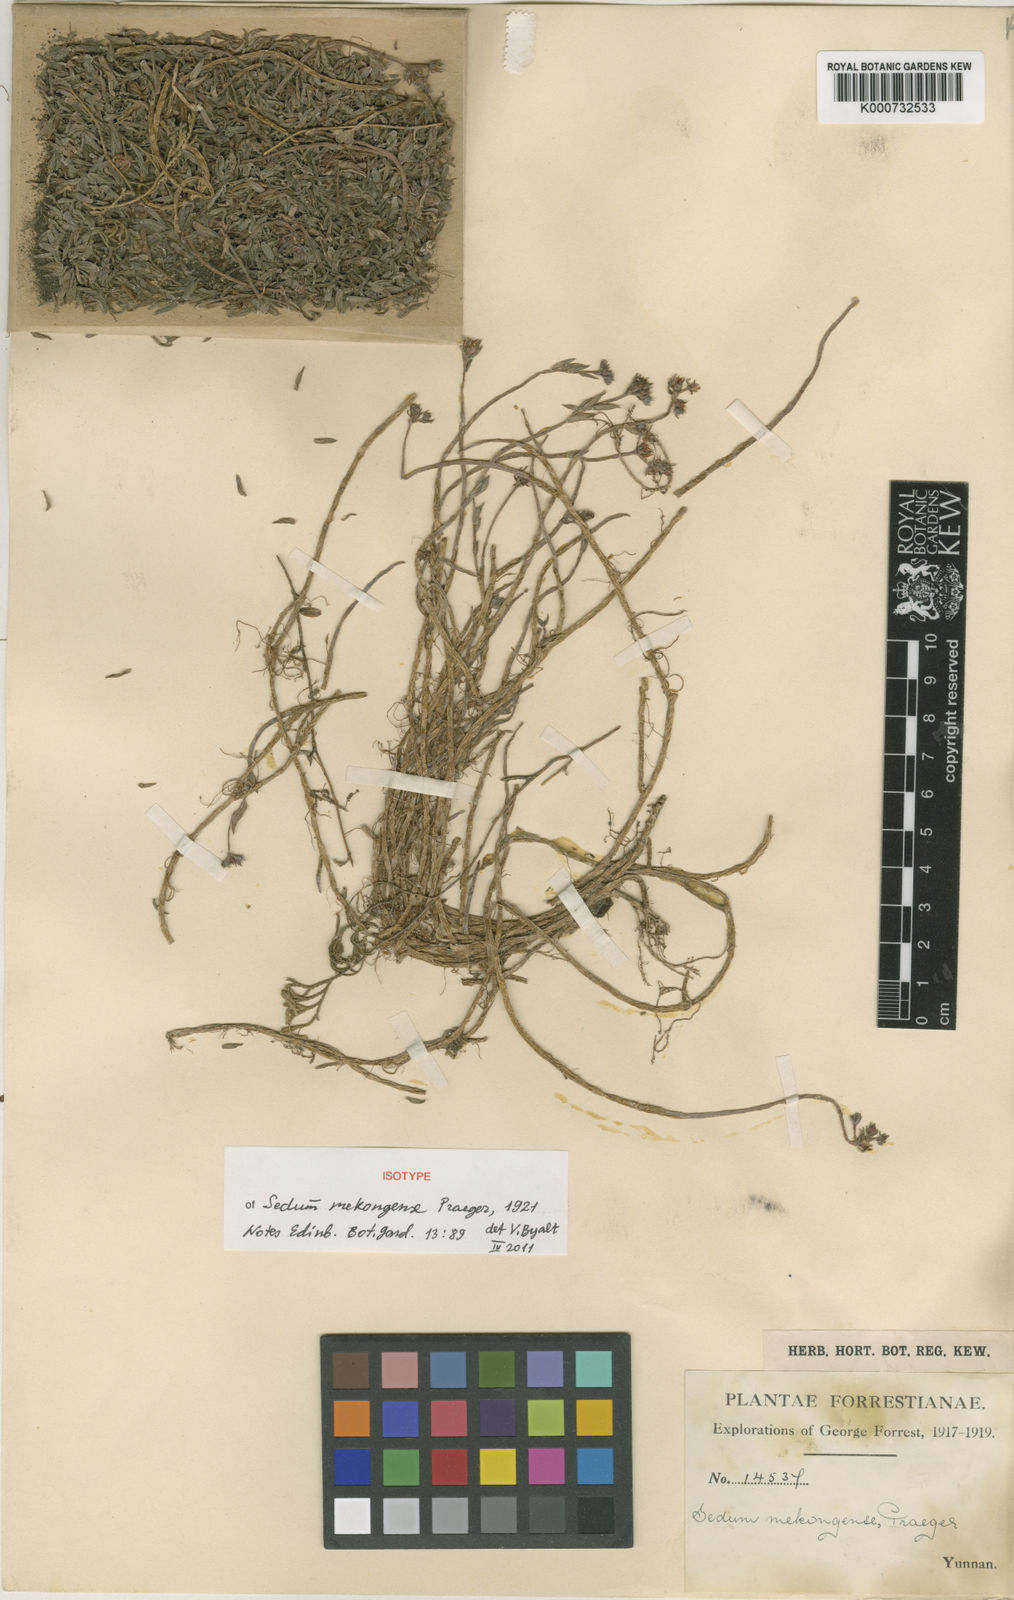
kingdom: Plantae
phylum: Tracheophyta
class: Magnoliopsida
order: Saxifragales
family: Crassulaceae
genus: Sedum
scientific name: Sedum multicaule
